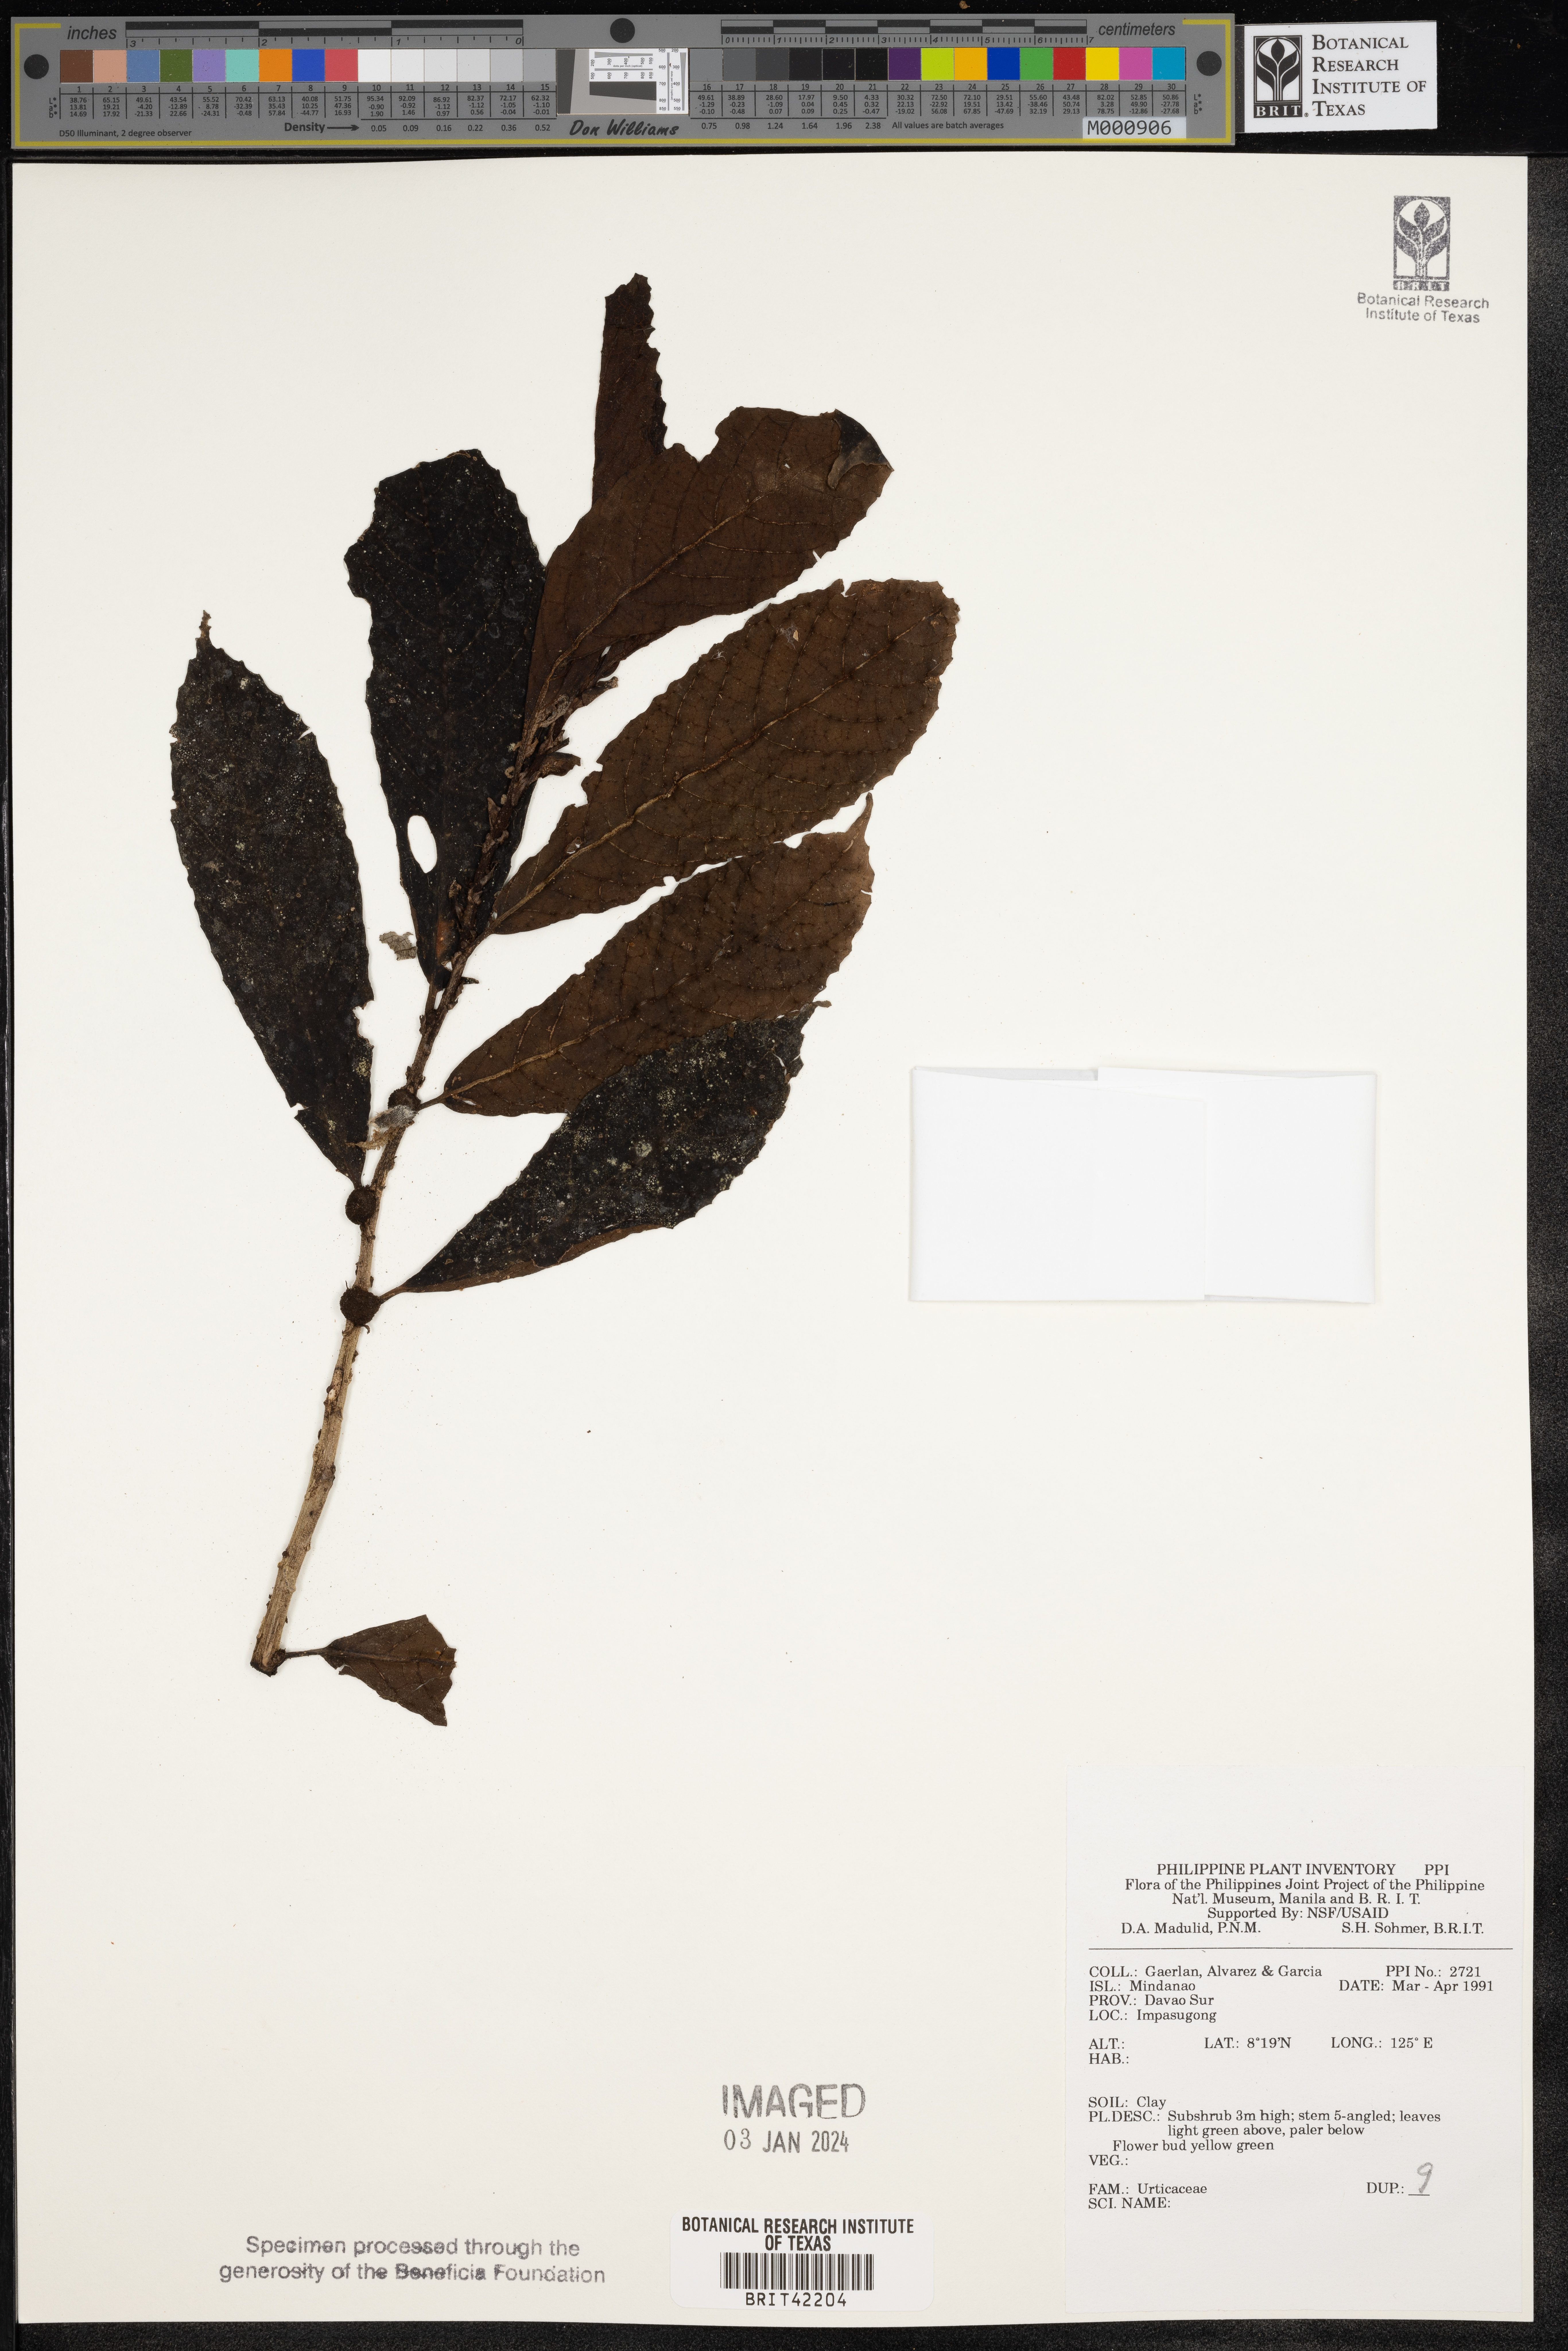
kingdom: Plantae
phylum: Tracheophyta
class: Magnoliopsida
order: Rosales
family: Urticaceae
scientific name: Urticaceae
